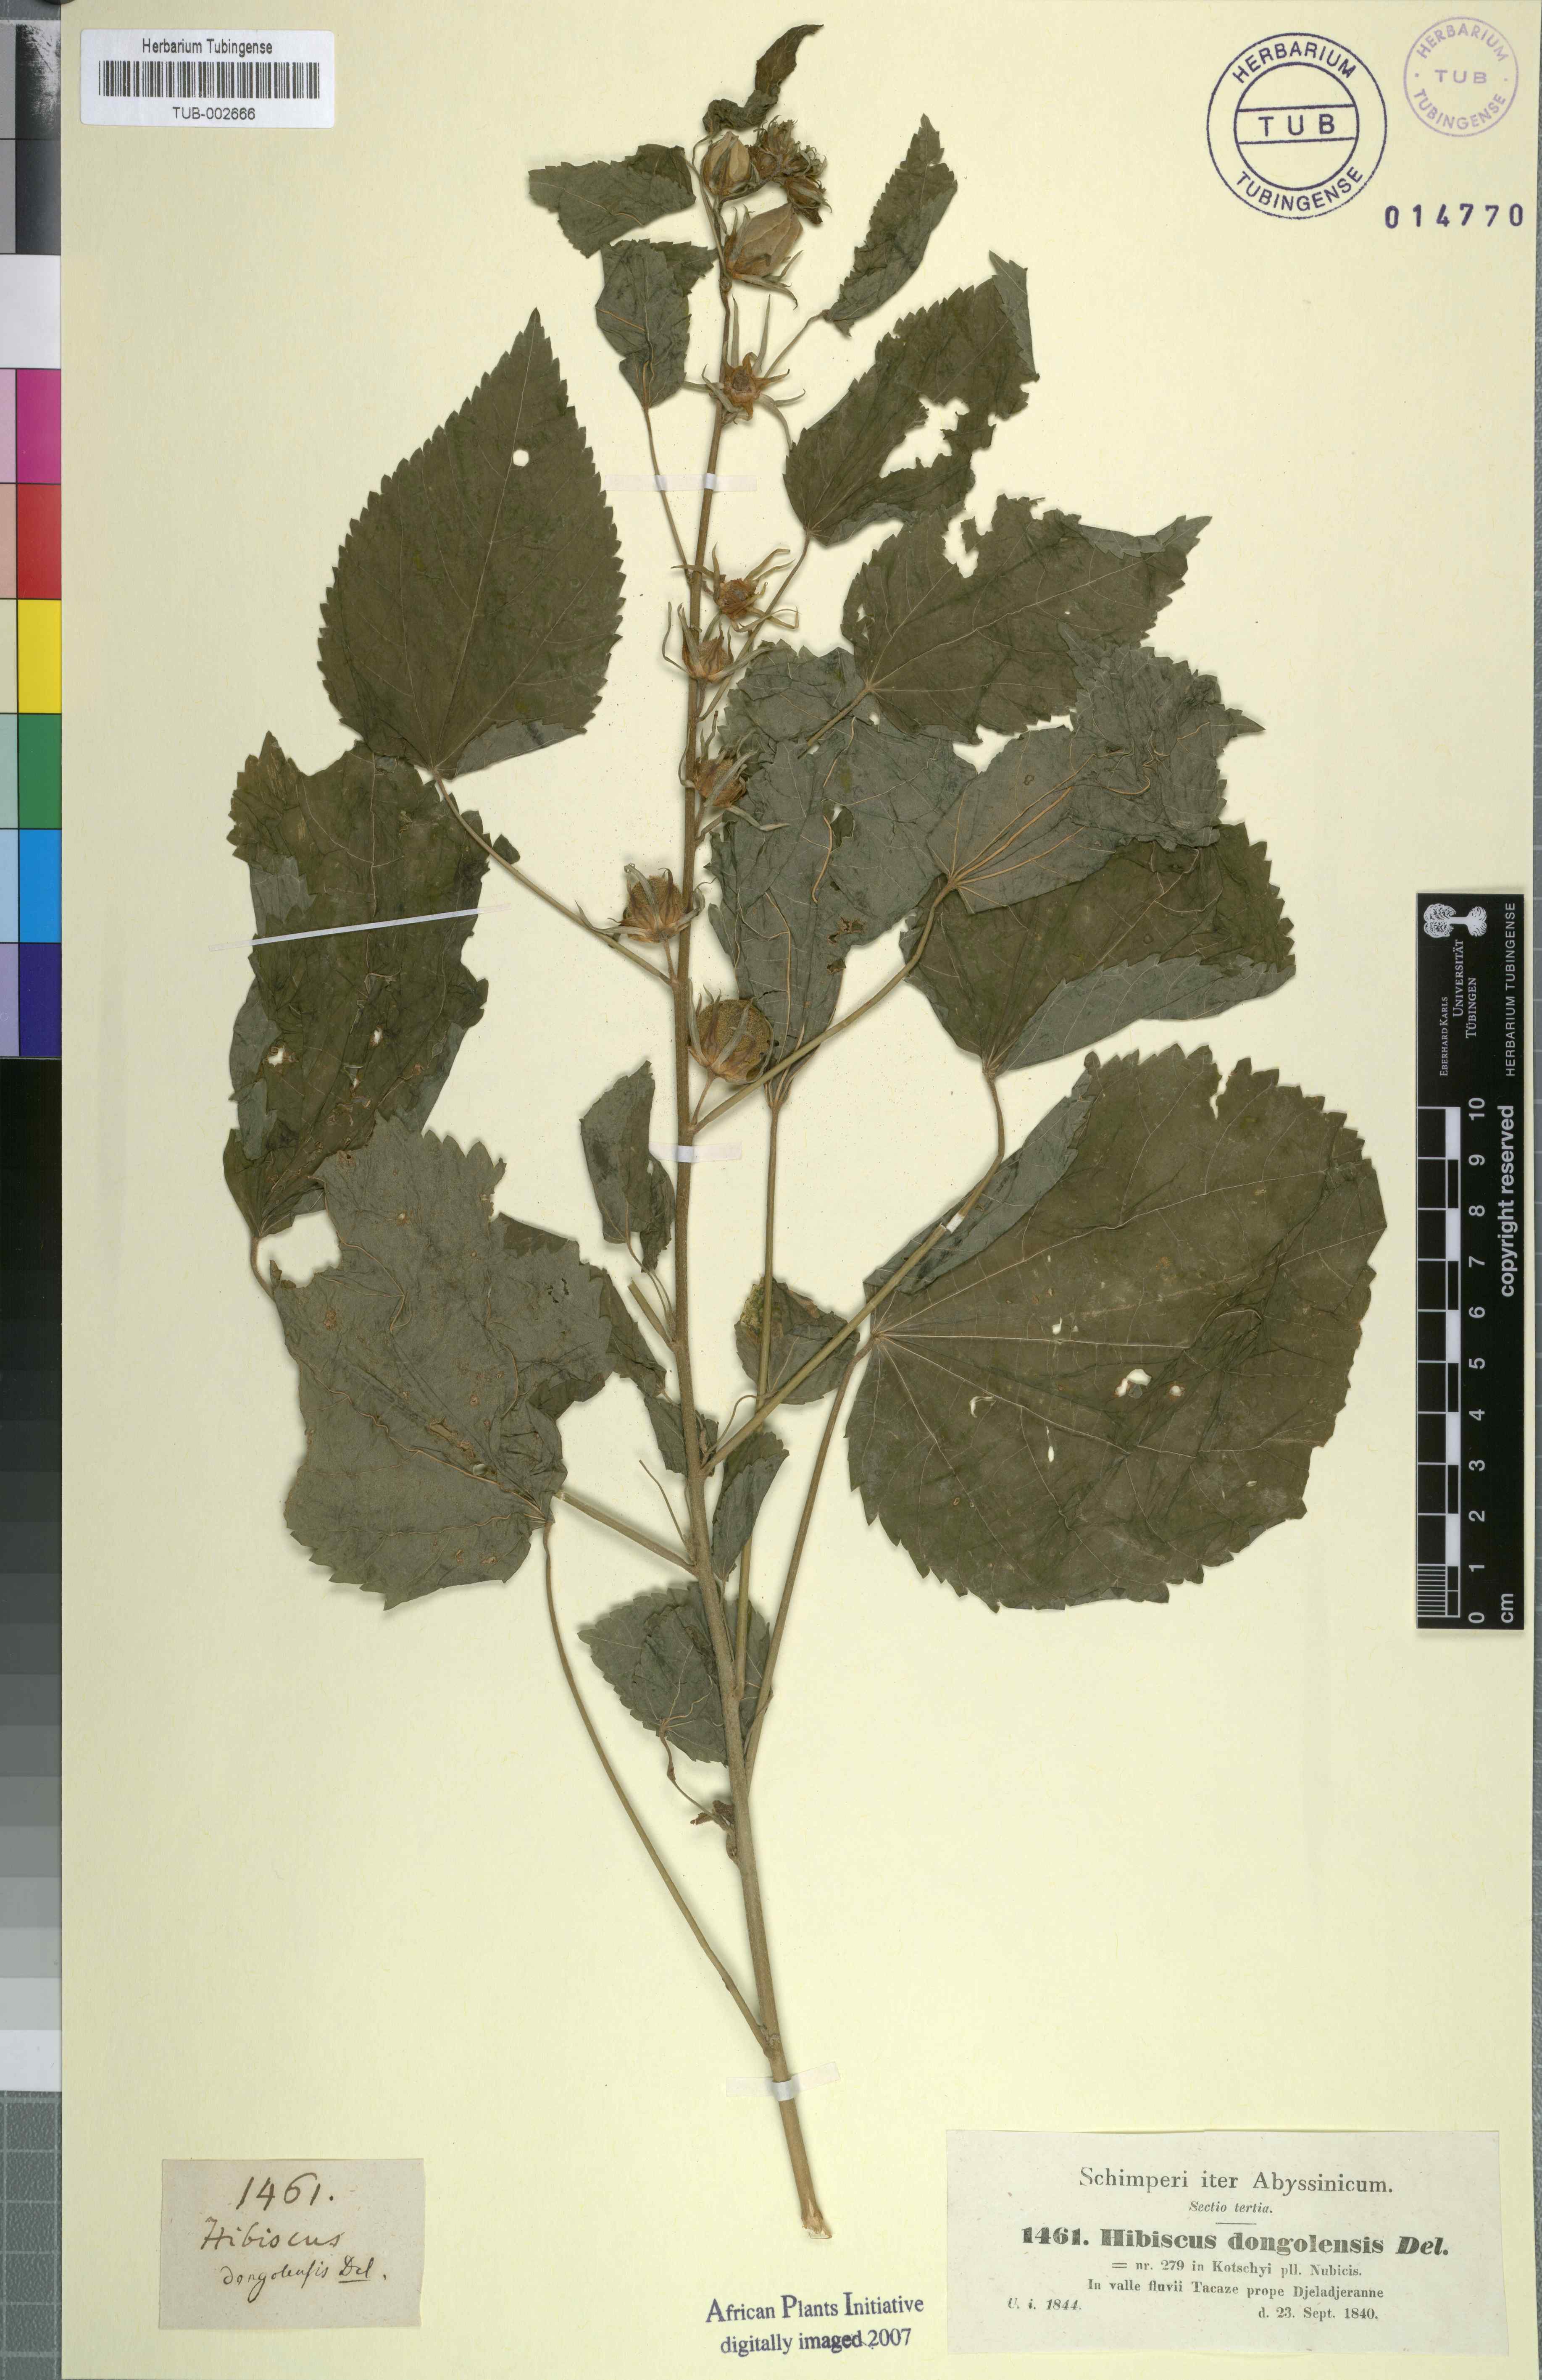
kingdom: Plantae
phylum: Tracheophyta
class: Magnoliopsida
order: Malvales
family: Malvaceae
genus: Hibiscus
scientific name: Hibiscus lunariifolius
